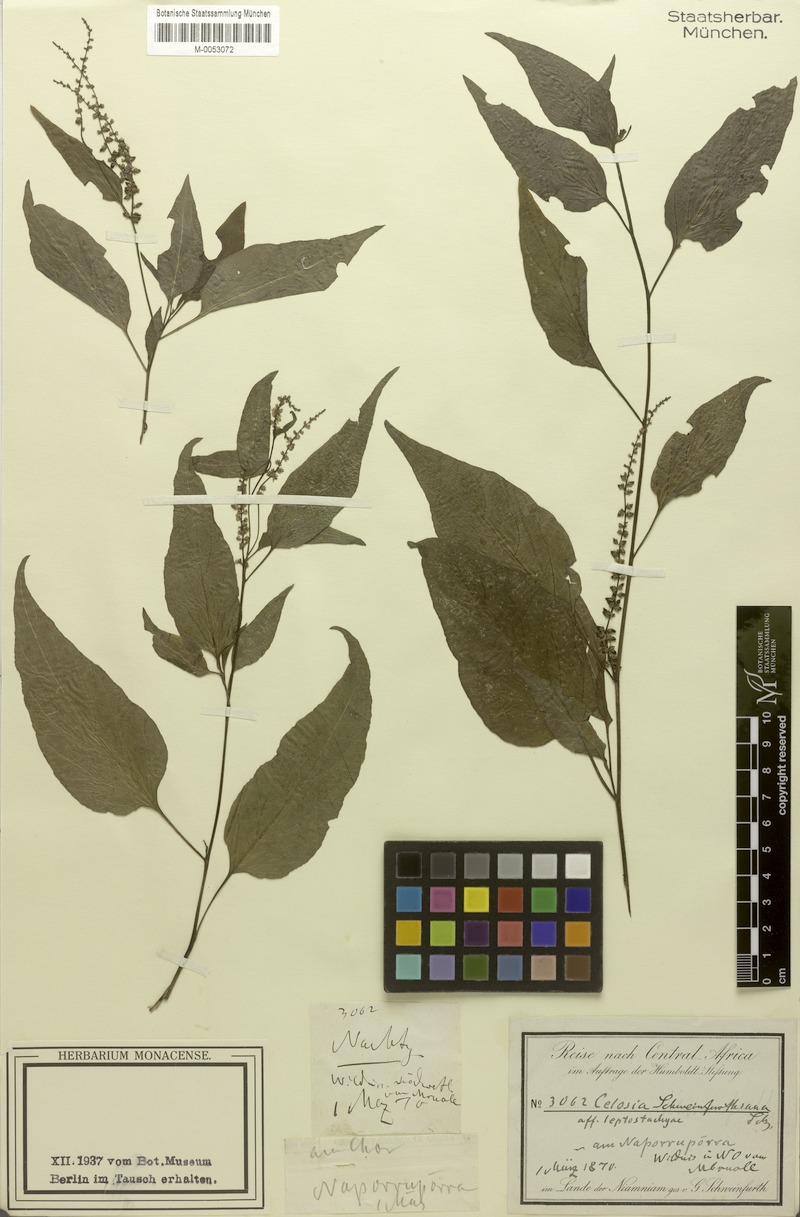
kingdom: Plantae
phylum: Tracheophyta
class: Magnoliopsida
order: Caryophyllales
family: Amaranthaceae
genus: Celosia
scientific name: Celosia schweinfurthiana
